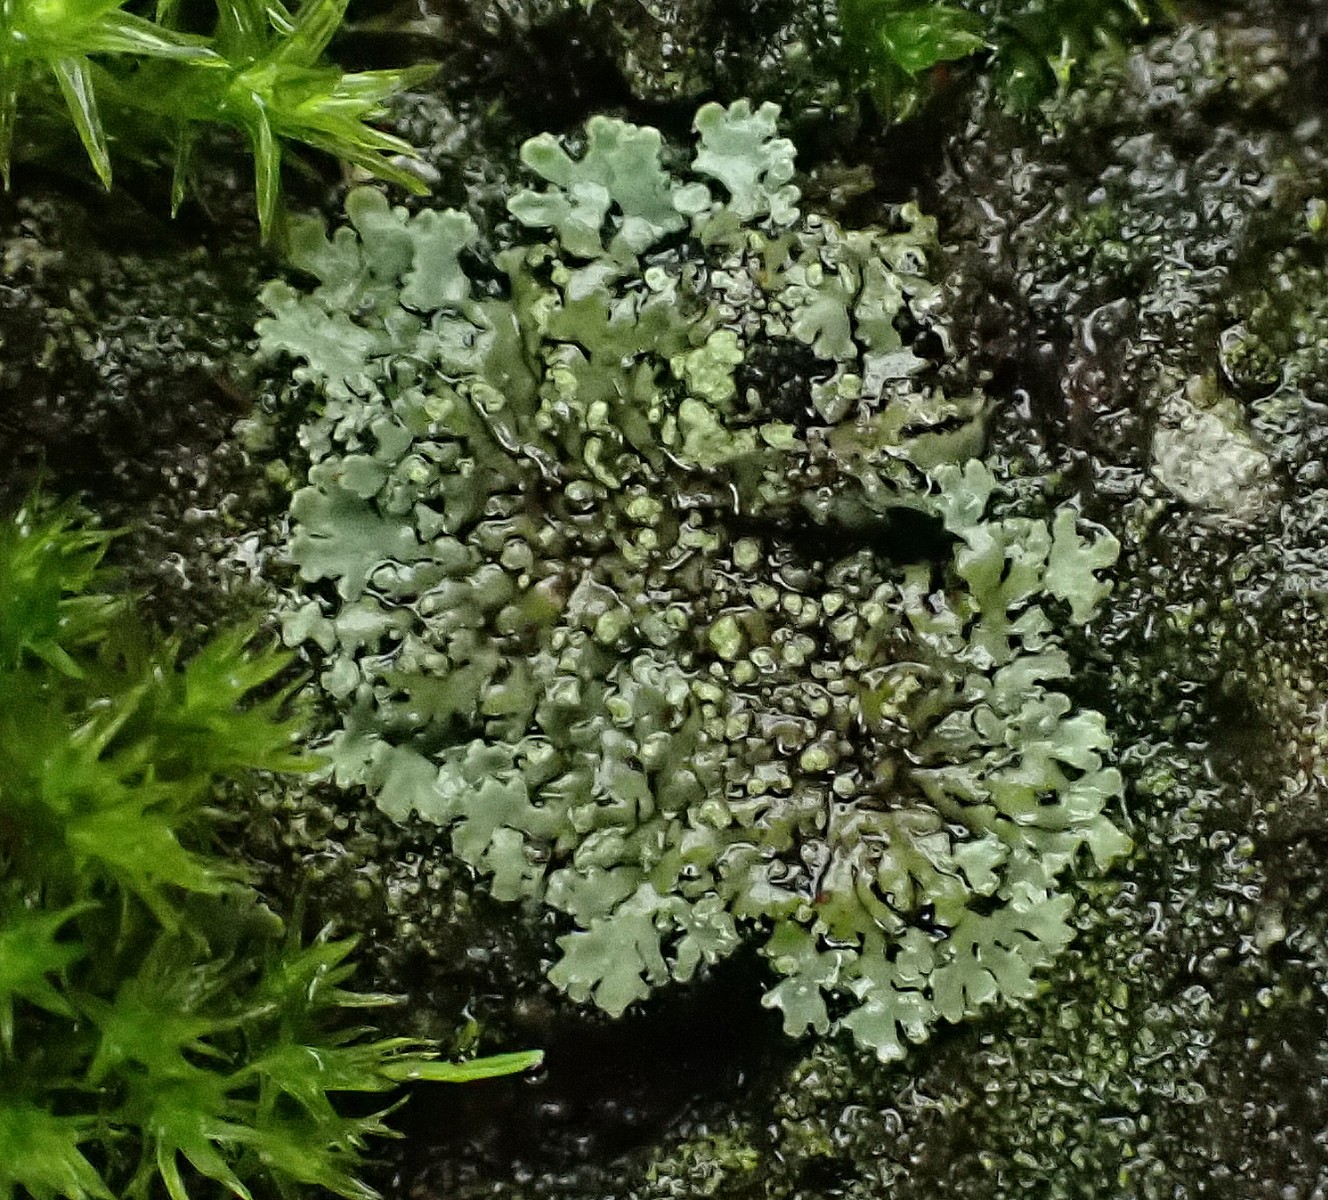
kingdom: Fungi
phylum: Ascomycota
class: Lecanoromycetes
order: Caliciales
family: Physciaceae
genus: Phaeophyscia
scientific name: Phaeophyscia orbicularis
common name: grågrøn rosetlav
